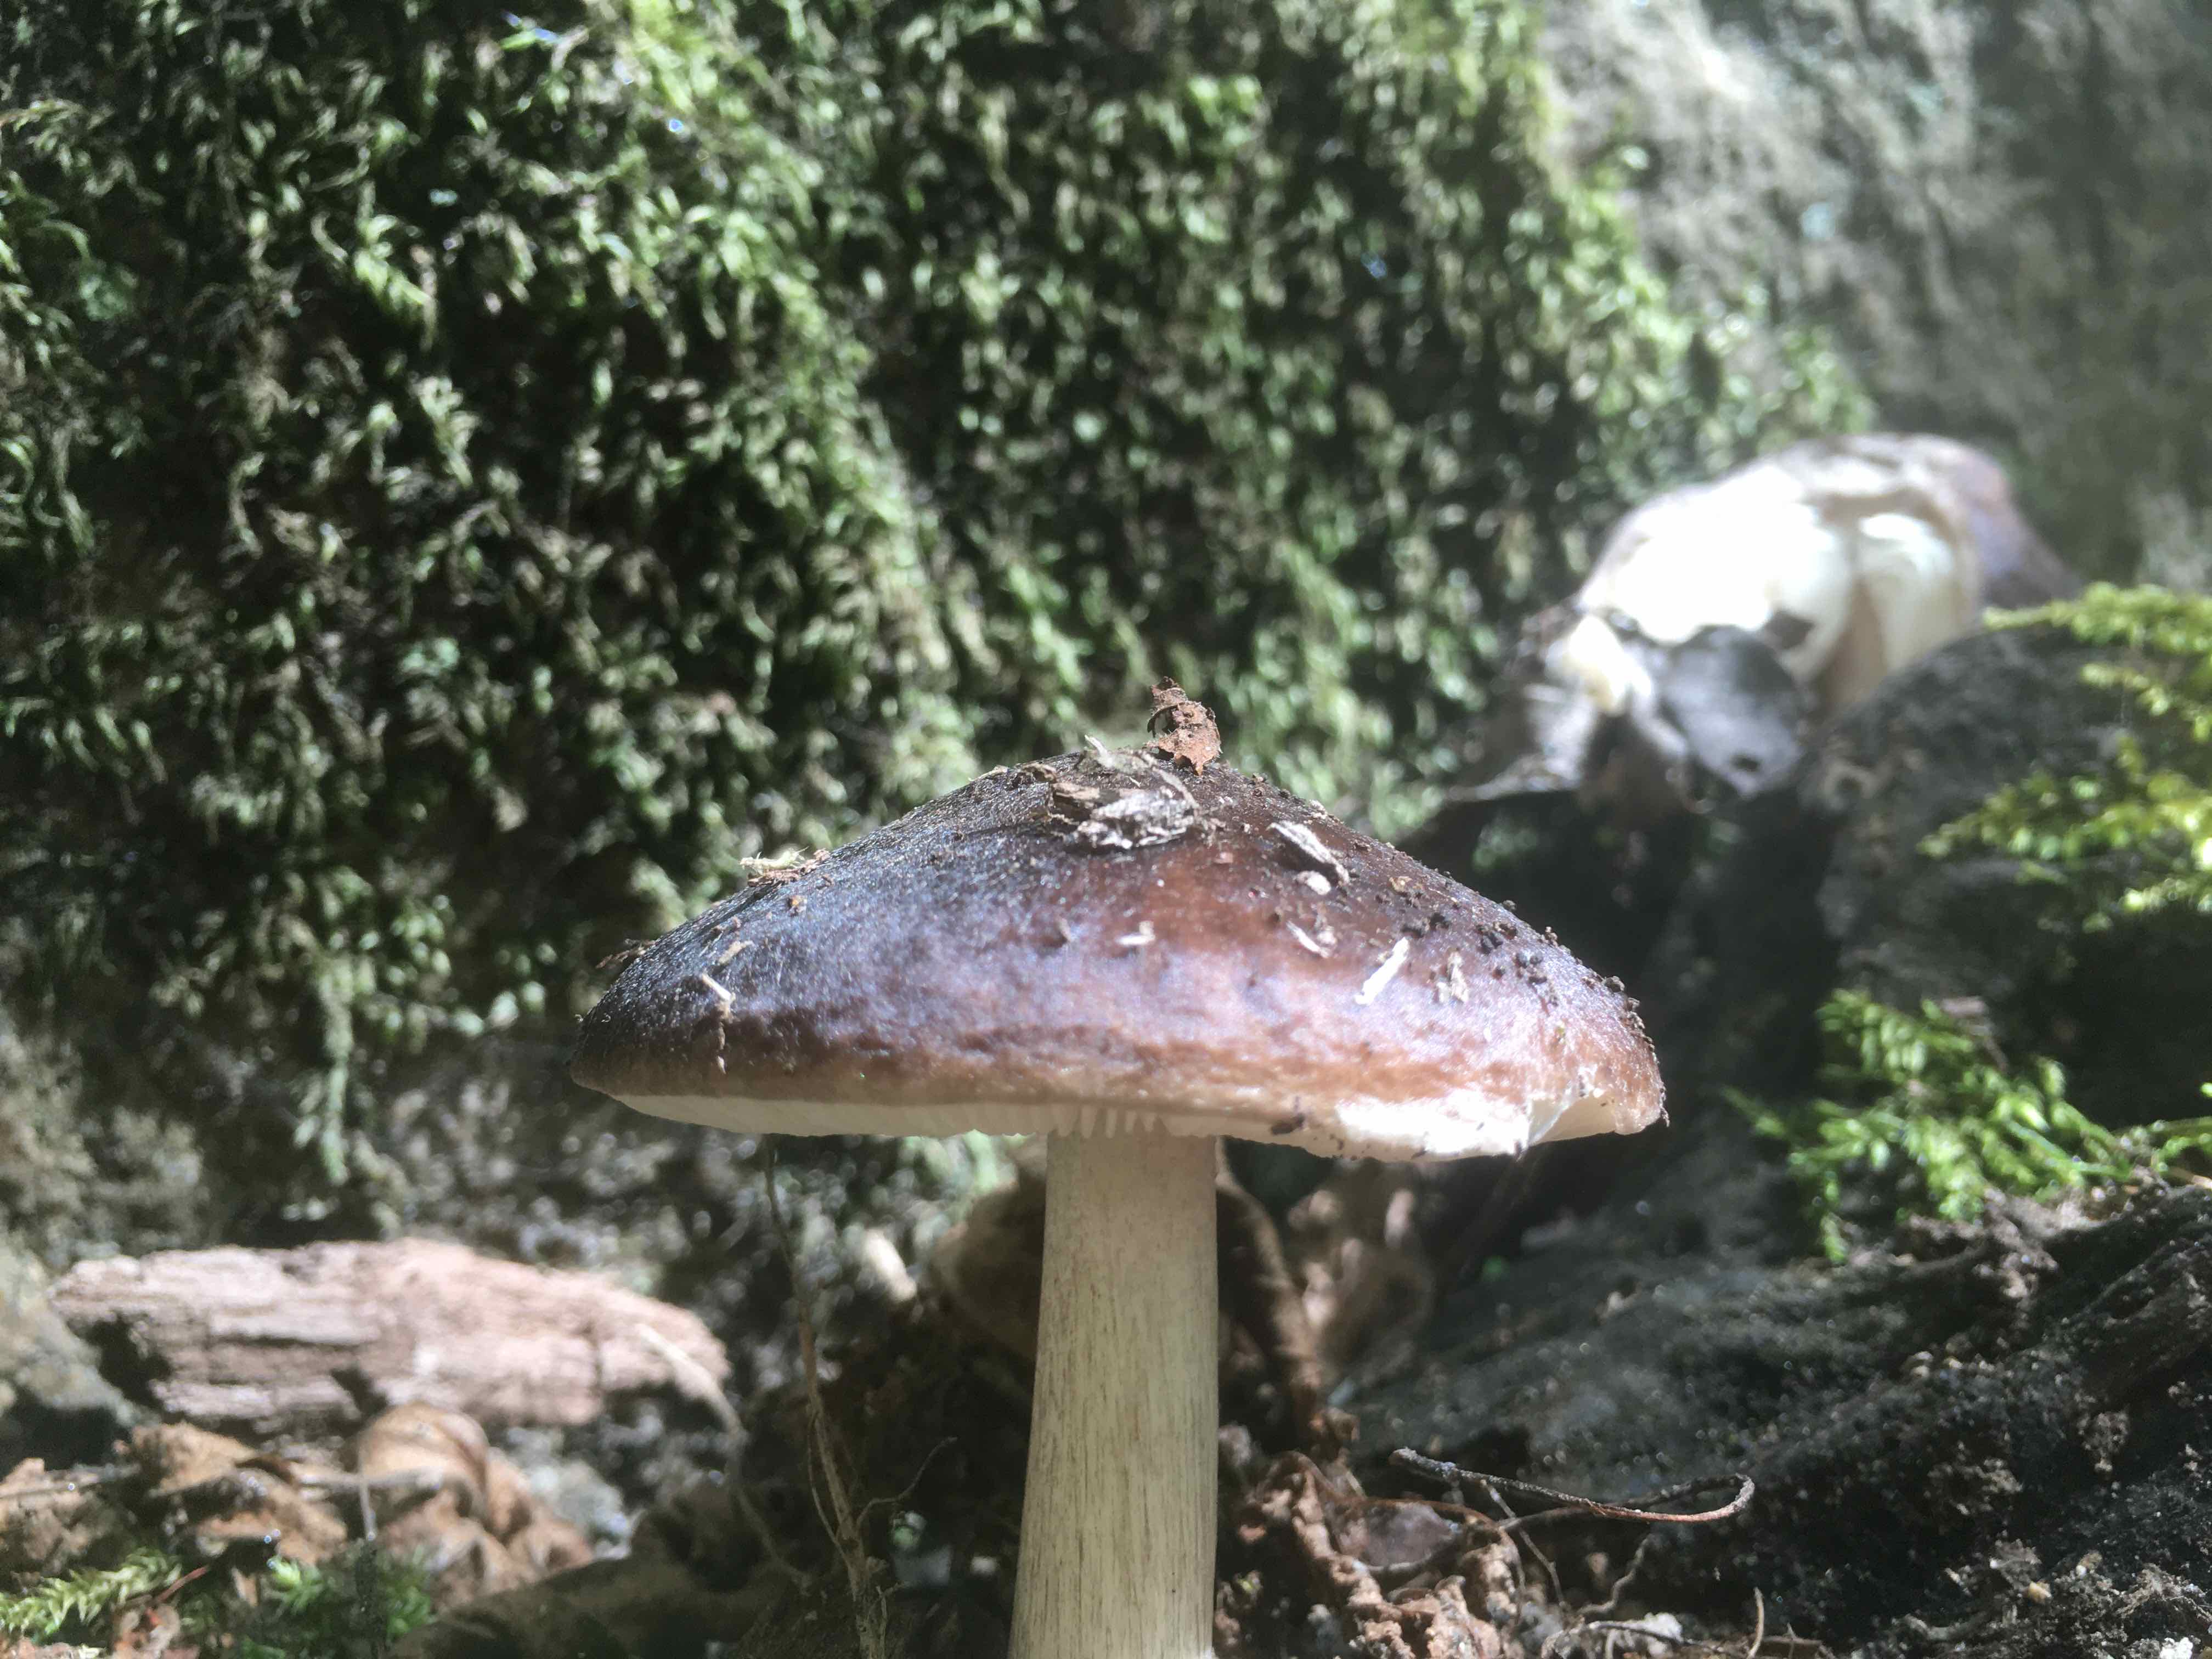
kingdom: Fungi
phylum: Basidiomycota
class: Agaricomycetes
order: Agaricales
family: Pluteaceae
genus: Pluteus
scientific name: Pluteus cervinus
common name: sodfarvet skærmhat
